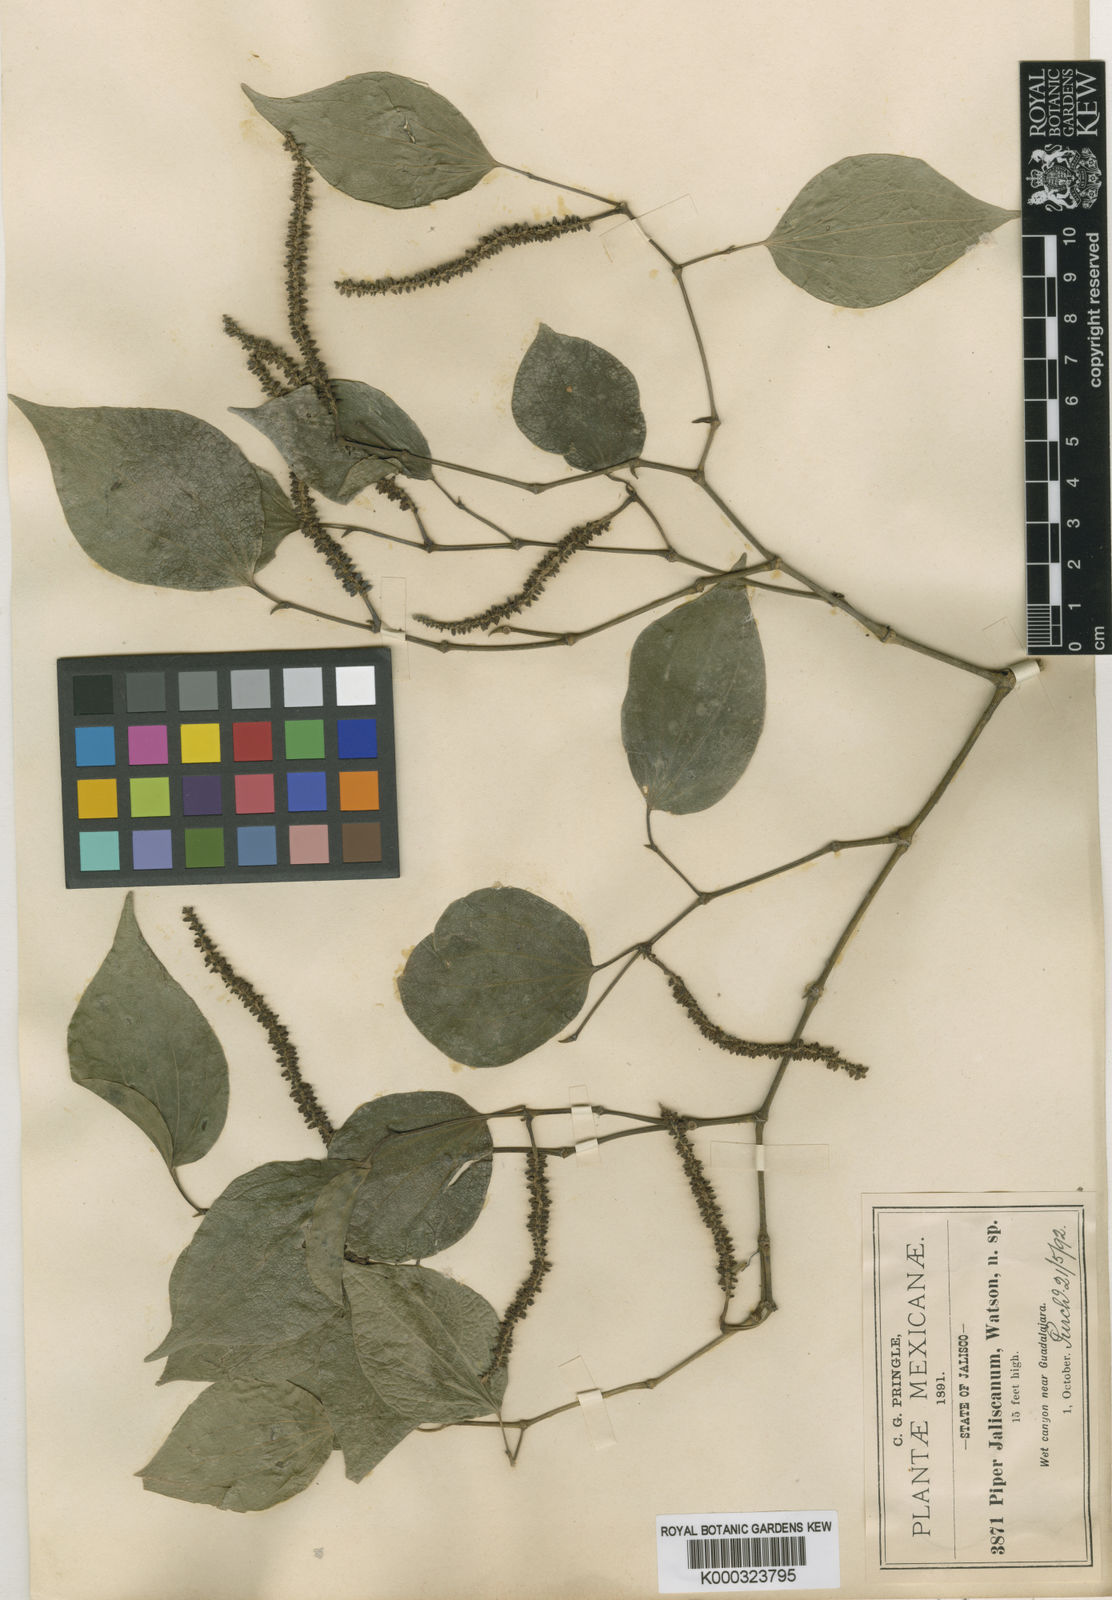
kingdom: Plantae
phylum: Tracheophyta
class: Magnoliopsida
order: Piperales
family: Piperaceae
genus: Piper
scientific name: Piper jaliscanum
